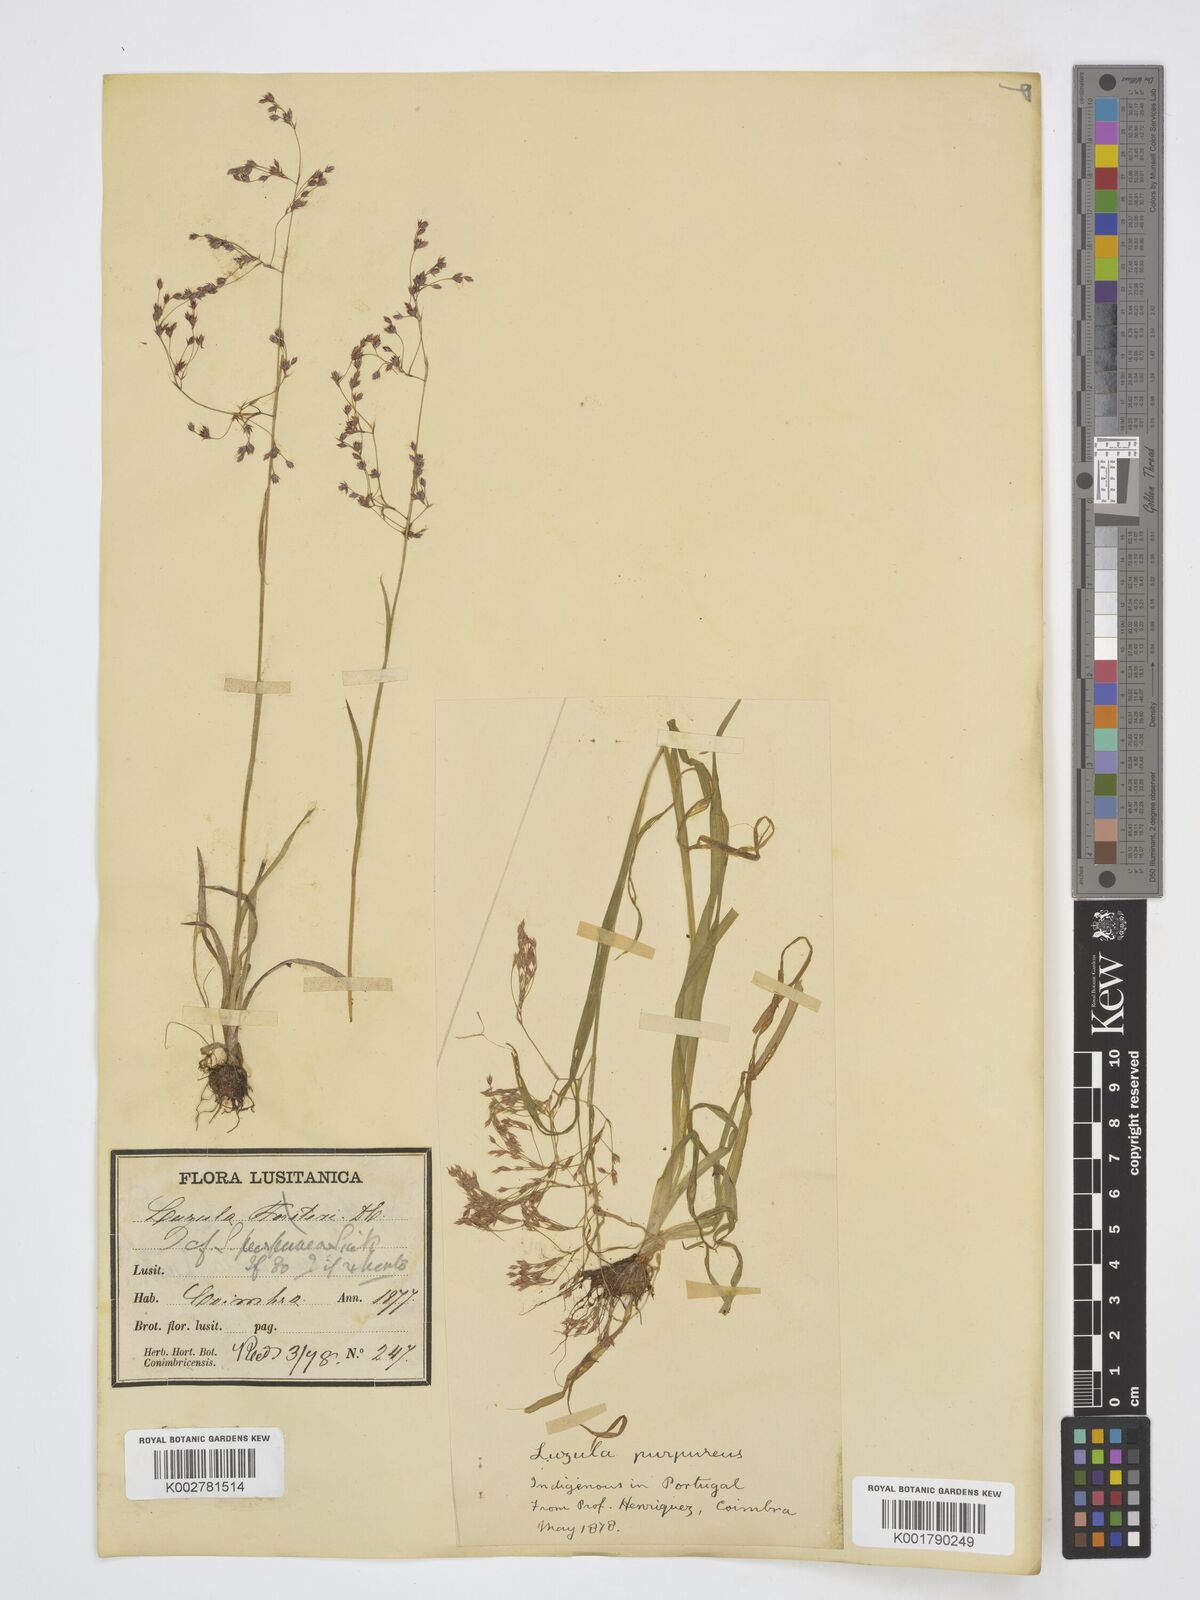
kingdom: Plantae
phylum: Tracheophyta
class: Liliopsida
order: Poales
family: Juncaceae
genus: Luzula
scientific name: Luzula
